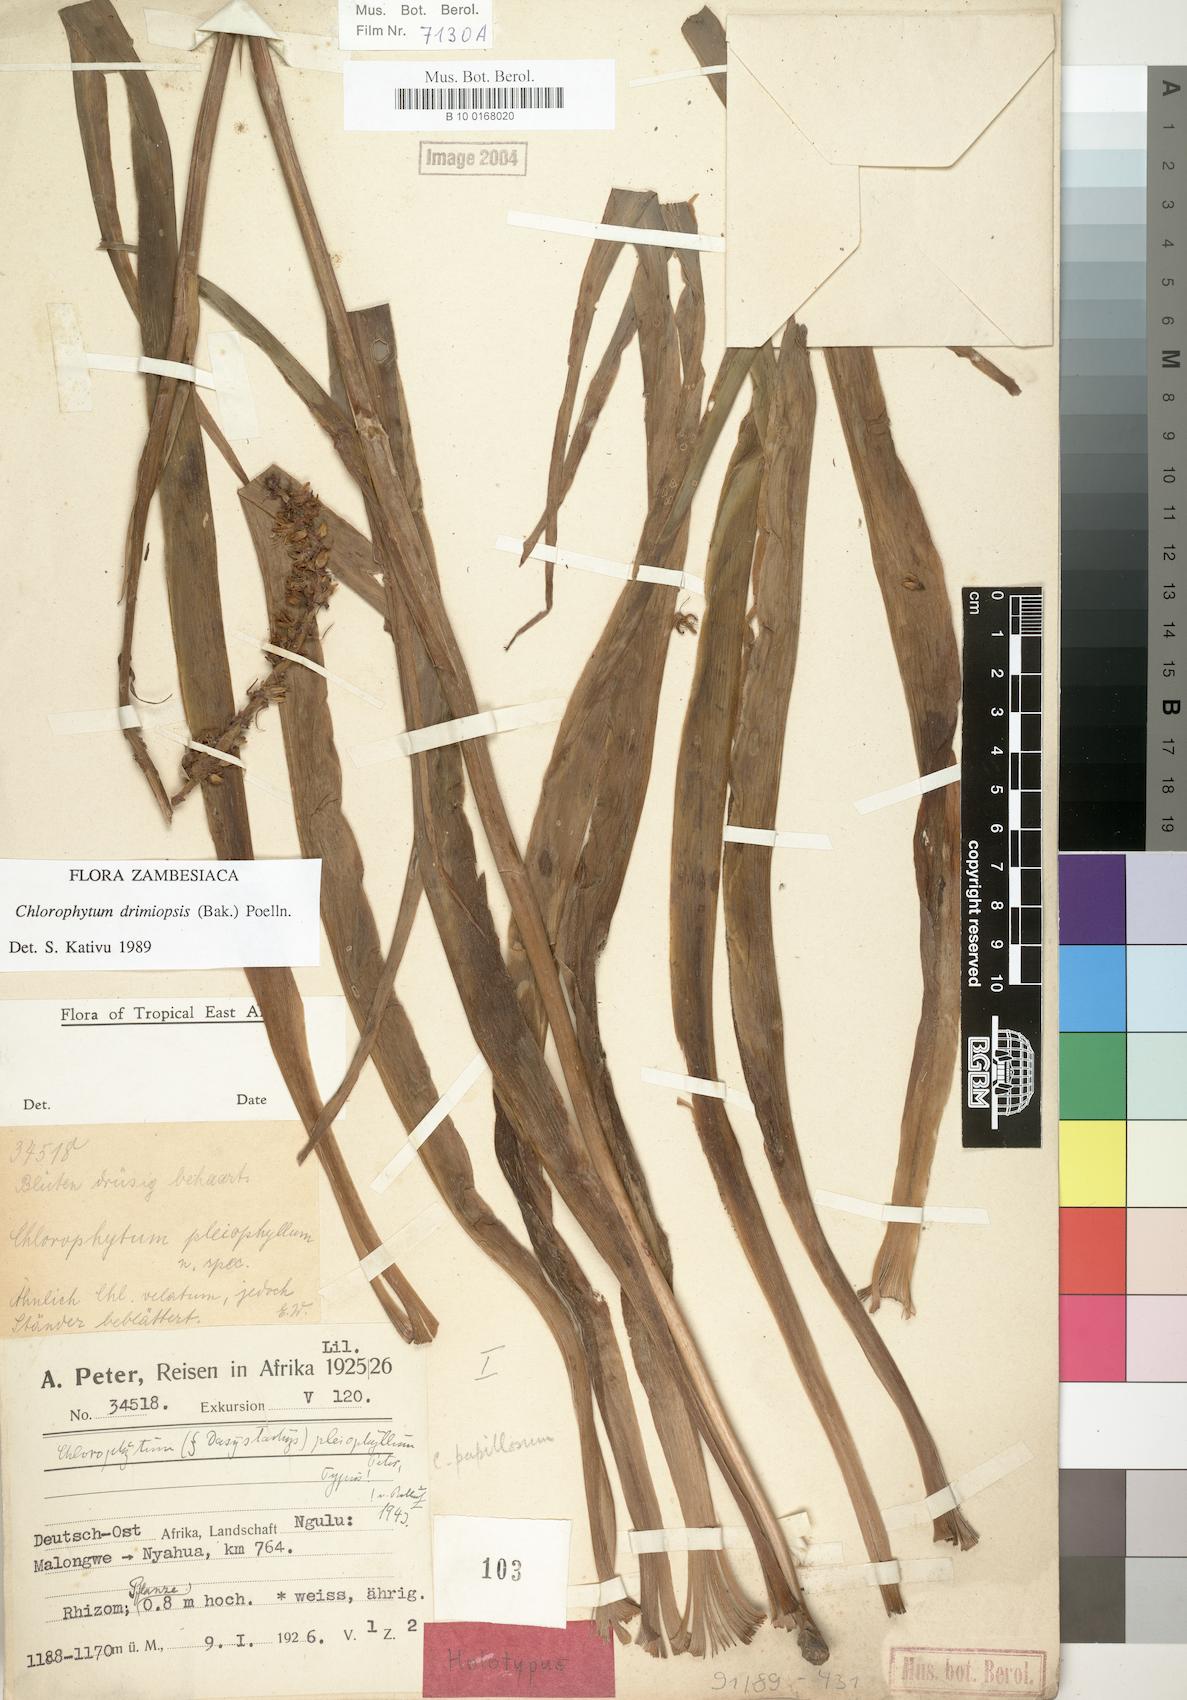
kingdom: Plantae
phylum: Tracheophyta
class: Liliopsida
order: Asparagales
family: Asparagaceae
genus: Chlorophytum
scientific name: Chlorophytum longifolium
